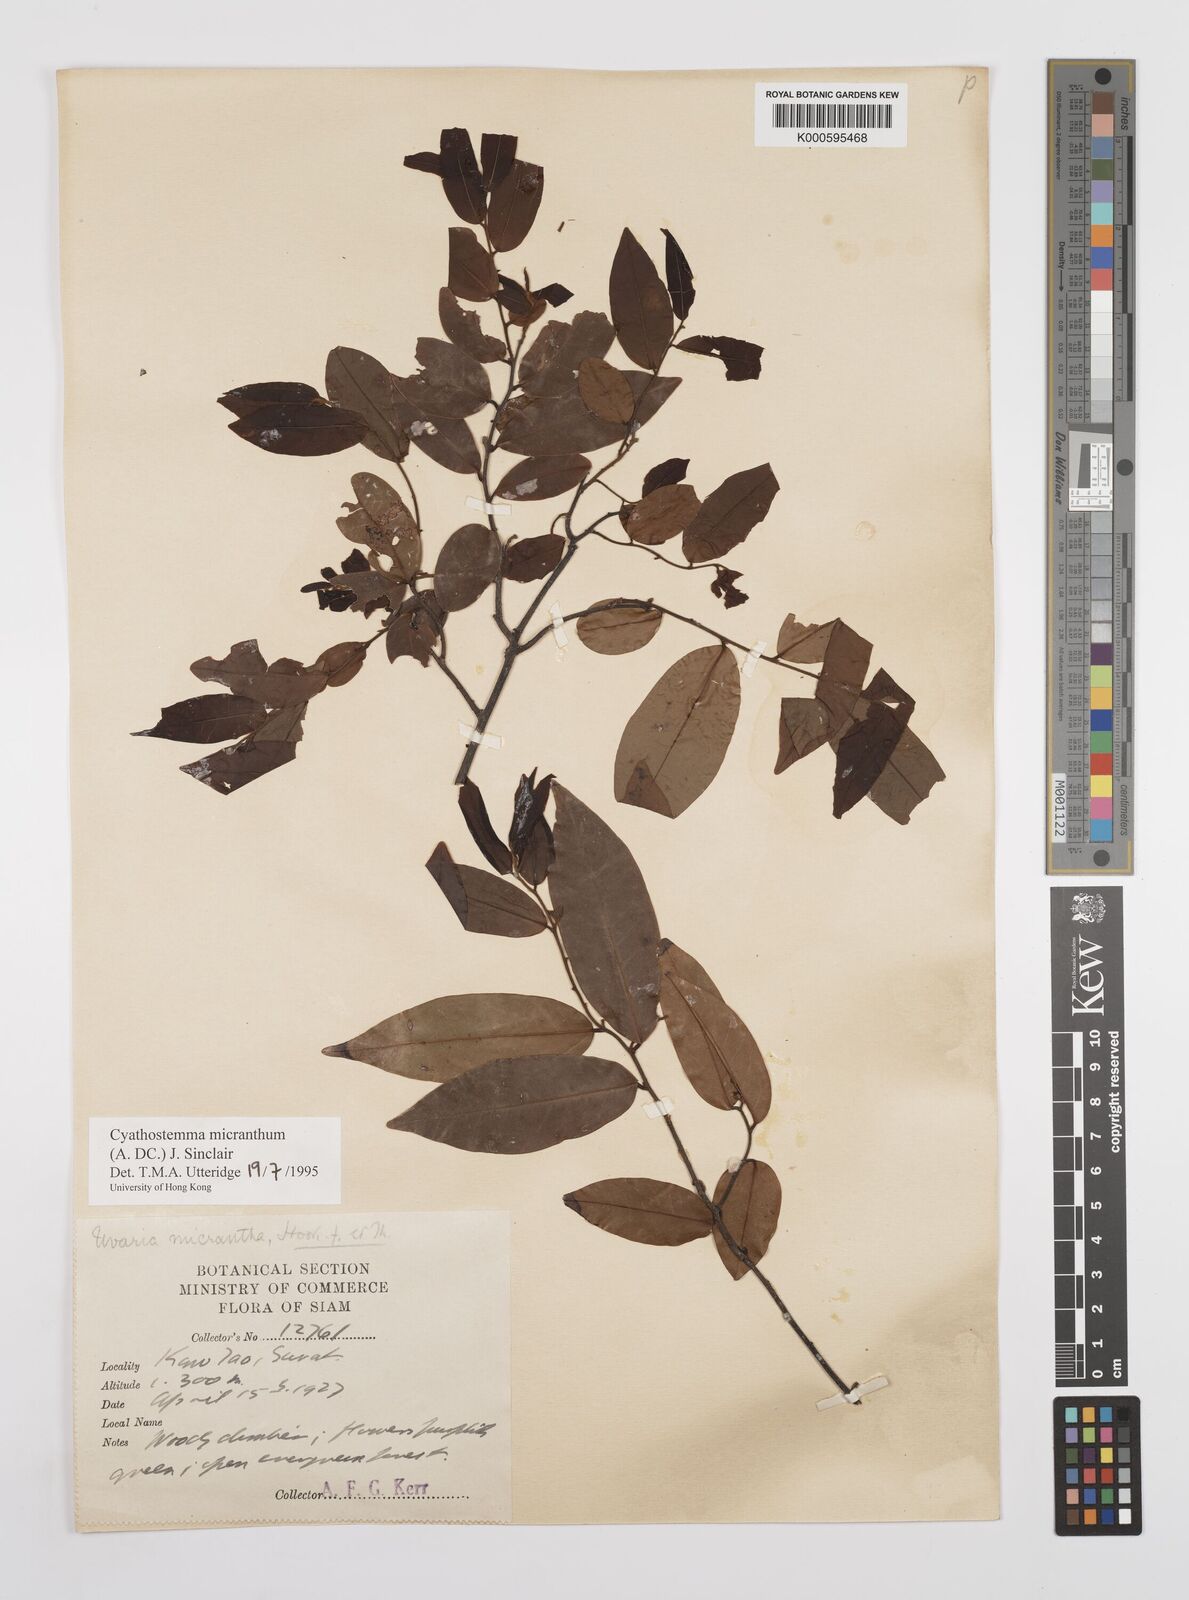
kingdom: Plantae
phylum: Tracheophyta
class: Magnoliopsida
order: Magnoliales
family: Annonaceae
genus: Uvaria
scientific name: Uvaria micrantha
